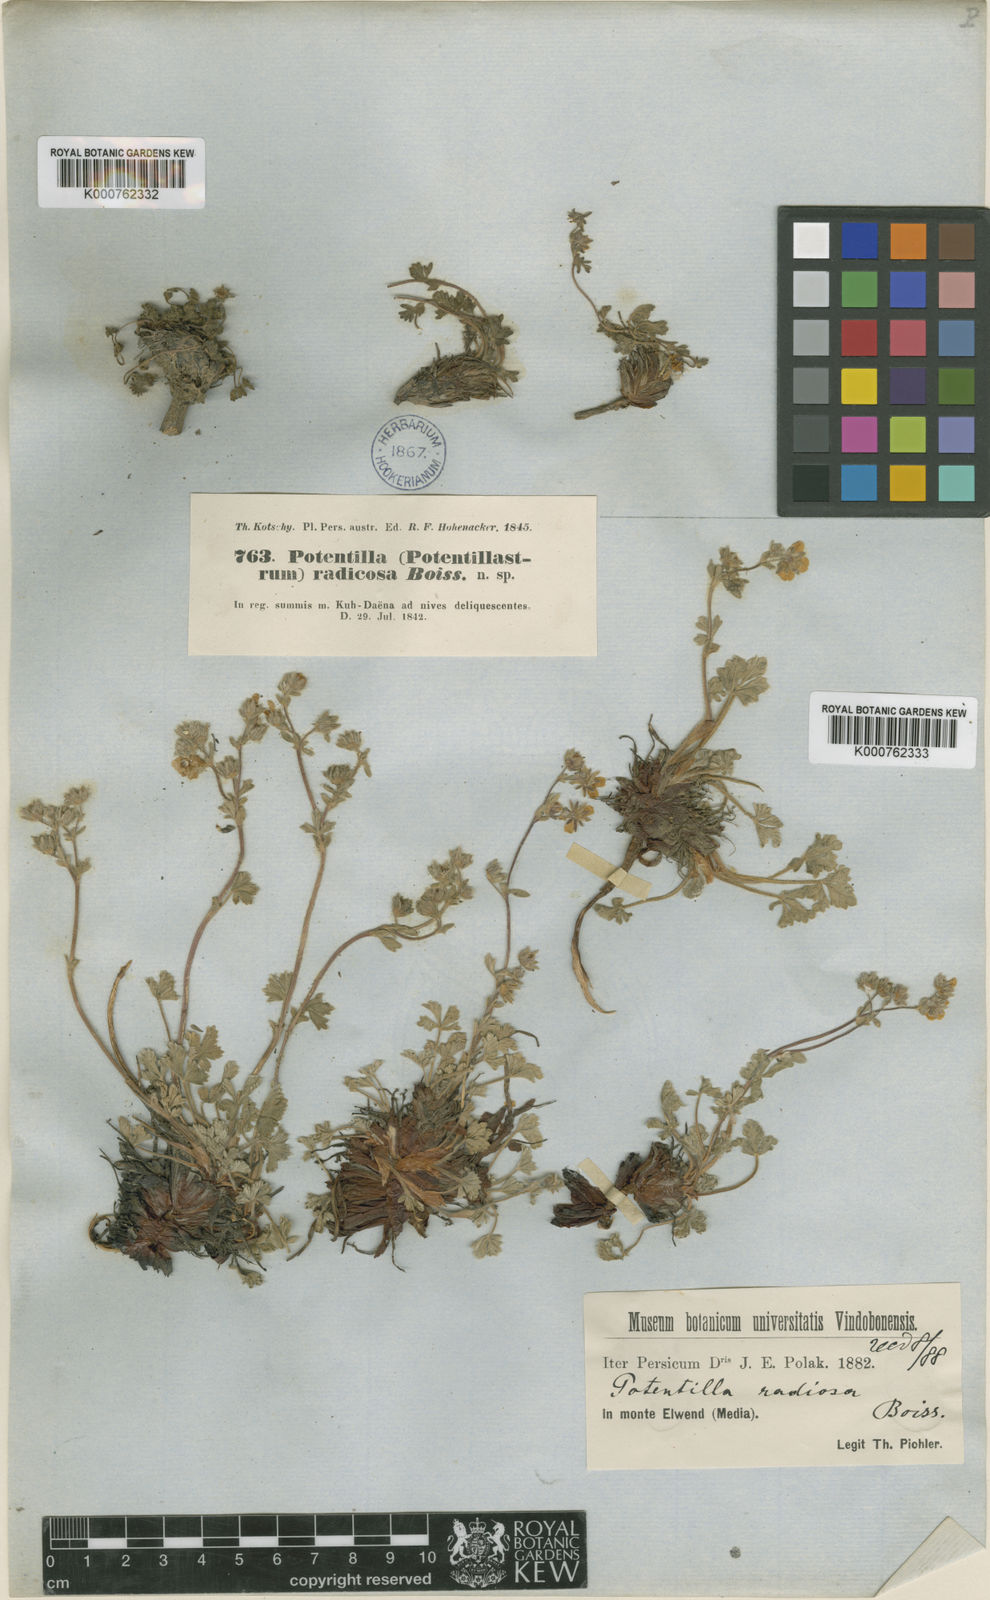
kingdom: Plantae
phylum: Tracheophyta
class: Magnoliopsida
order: Rosales
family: Rosaceae
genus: Potentilla
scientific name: Potentilla nuda
